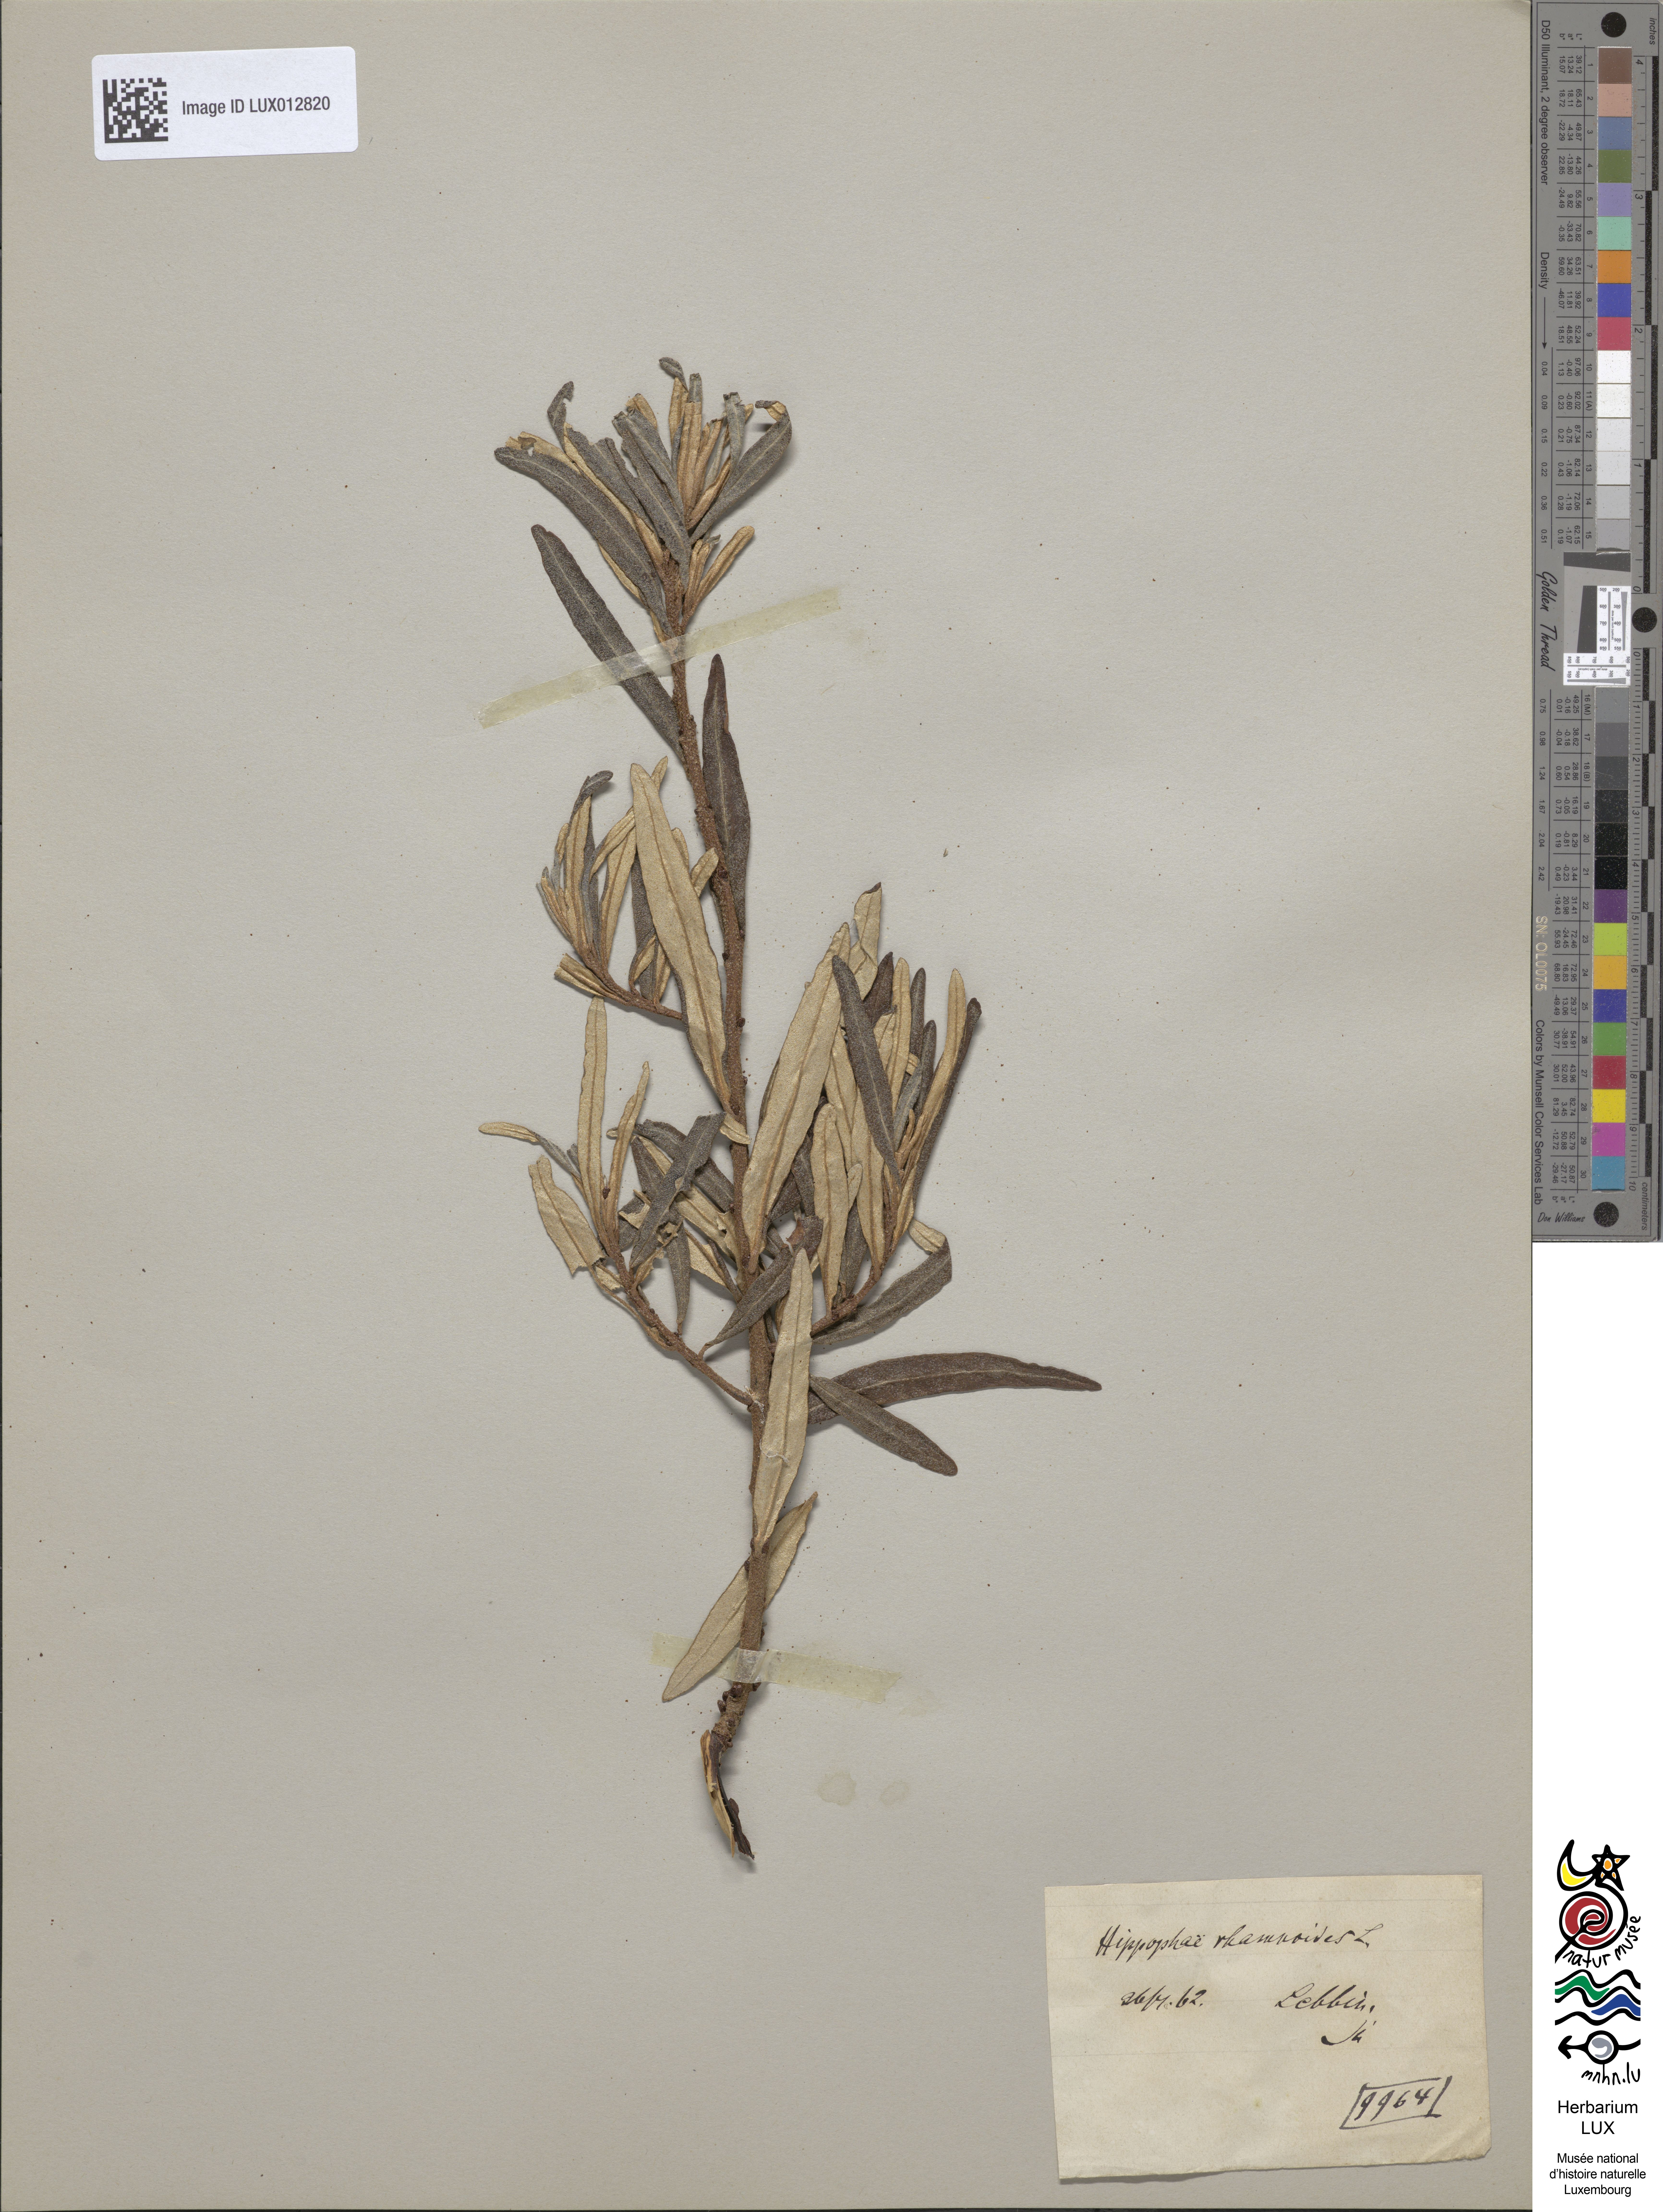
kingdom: Plantae
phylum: Tracheophyta
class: Magnoliopsida
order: Rosales
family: Elaeagnaceae
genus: Hippophae
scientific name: Hippophae rhamnoides
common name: Sea-buckthorn
